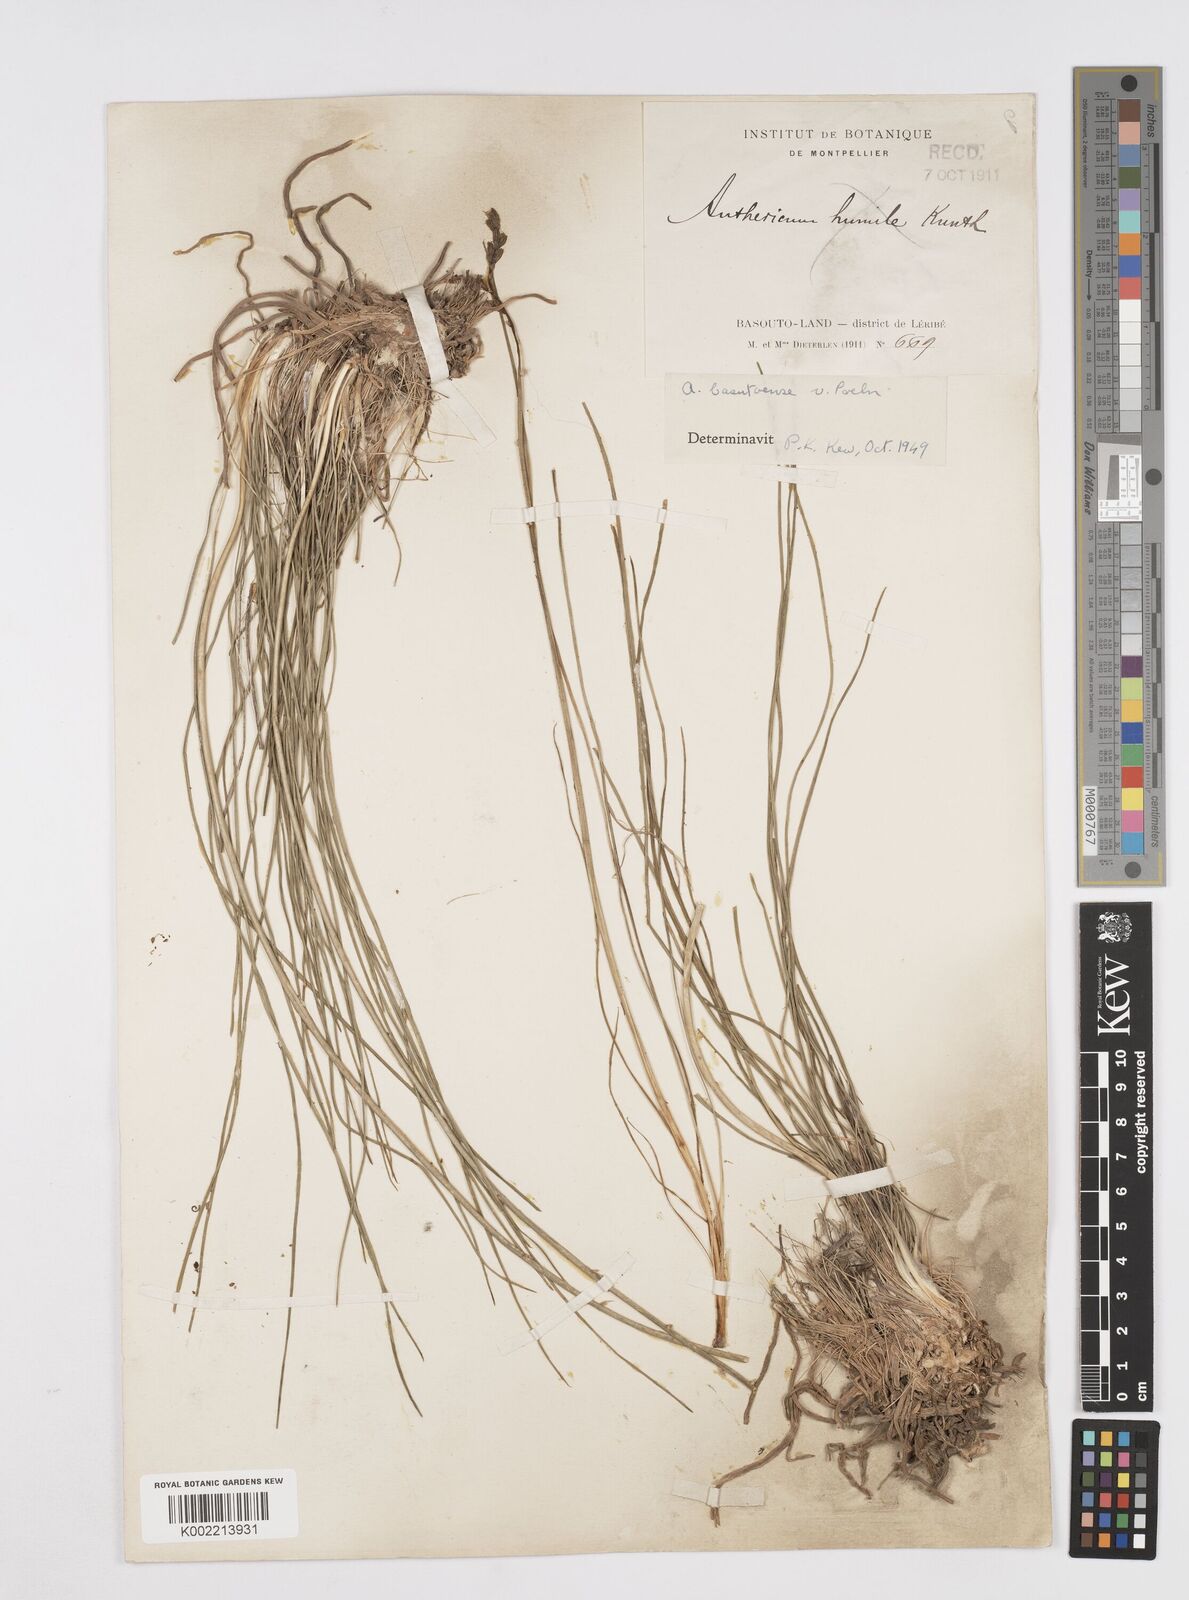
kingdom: Plantae
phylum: Tracheophyta
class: Liliopsida
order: Asparagales
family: Asphodelaceae
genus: Trachyandra
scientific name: Trachyandra asperata
